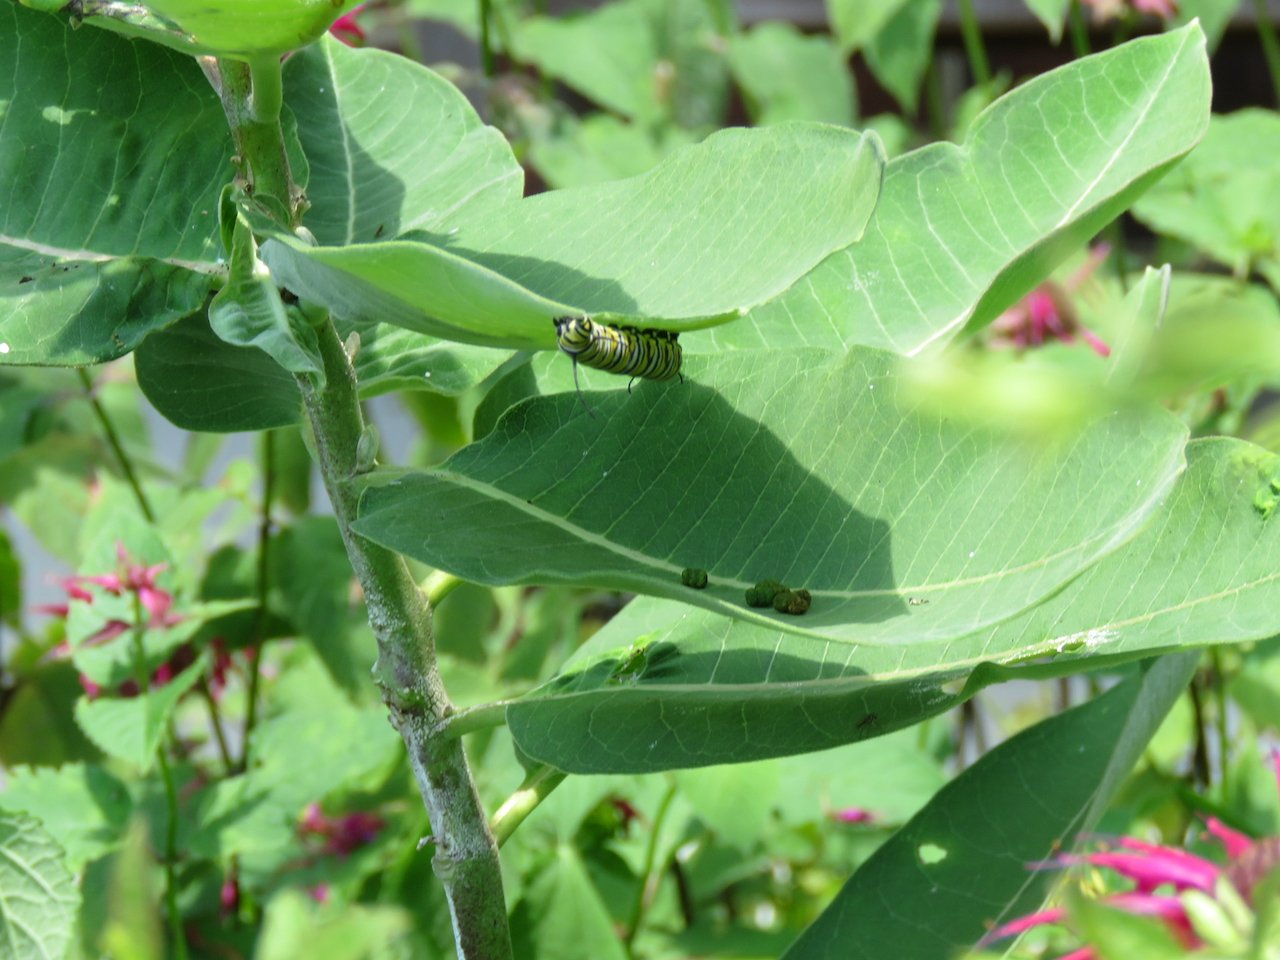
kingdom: Animalia
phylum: Arthropoda
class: Insecta
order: Lepidoptera
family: Nymphalidae
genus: Danaus
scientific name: Danaus plexippus
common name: Monarch
